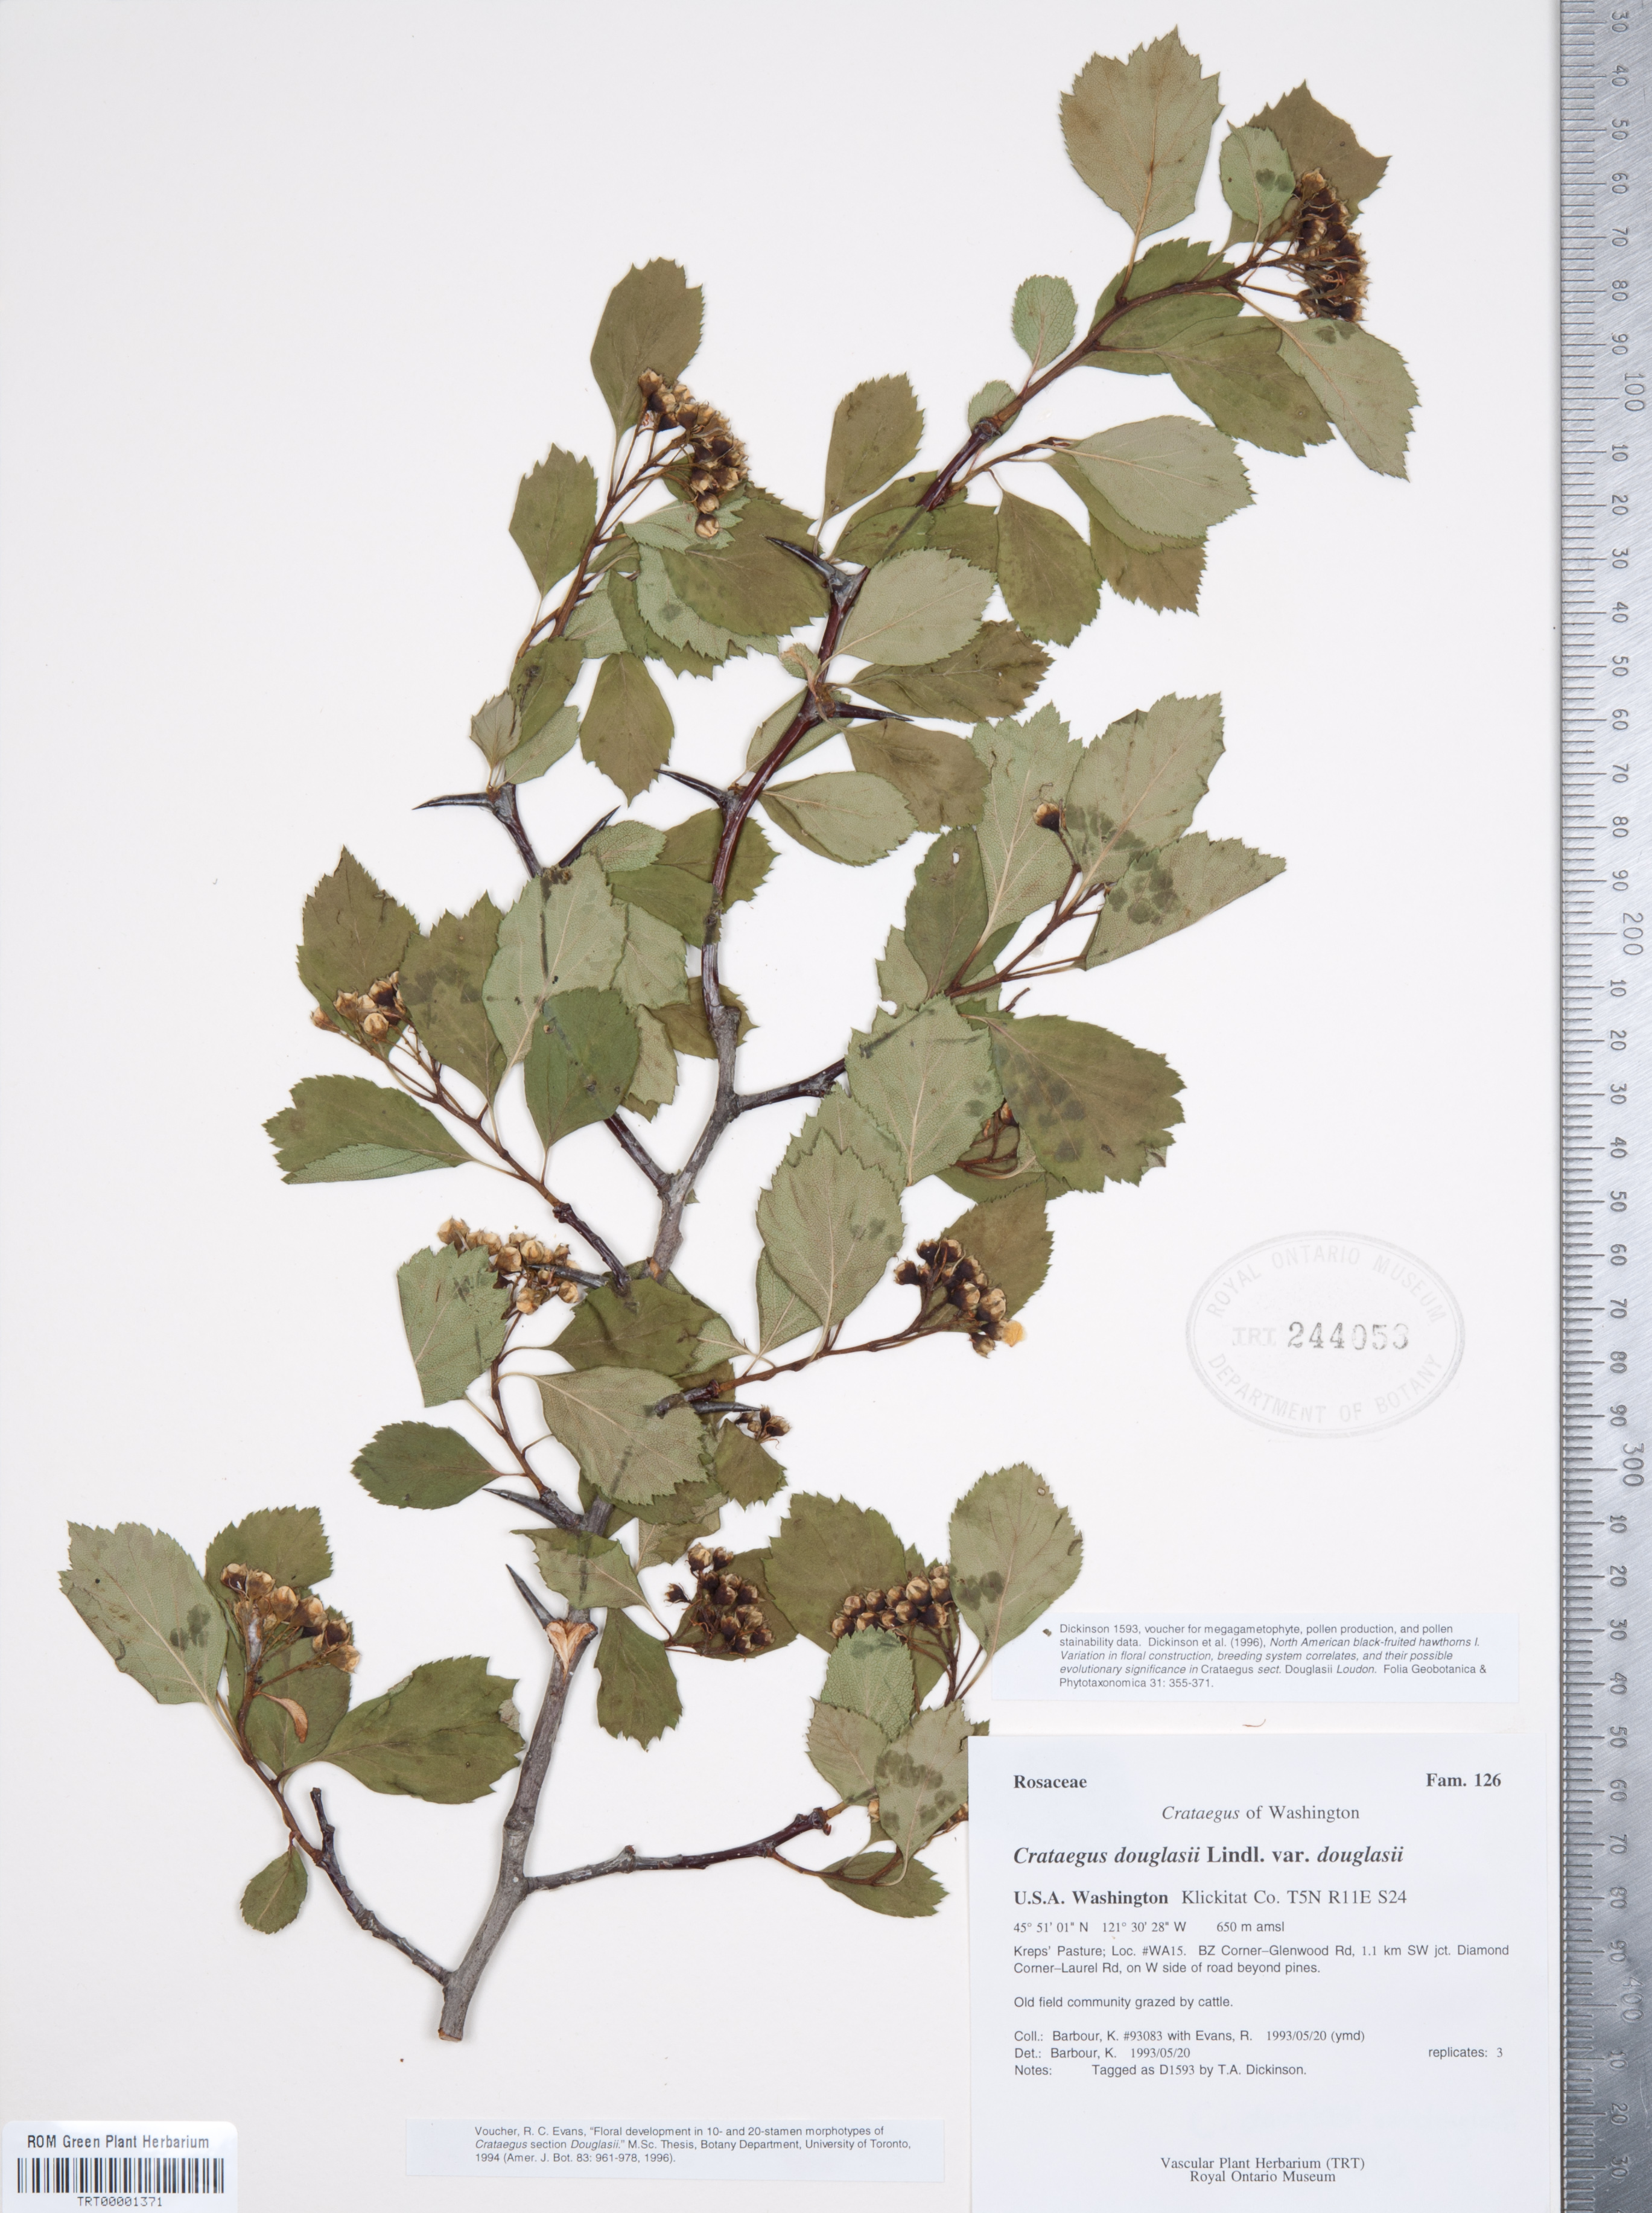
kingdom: Plantae
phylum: Tracheophyta
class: Magnoliopsida
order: Rosales
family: Rosaceae
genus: Crataegus
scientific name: Crataegus douglasii
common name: Black hawthorn
